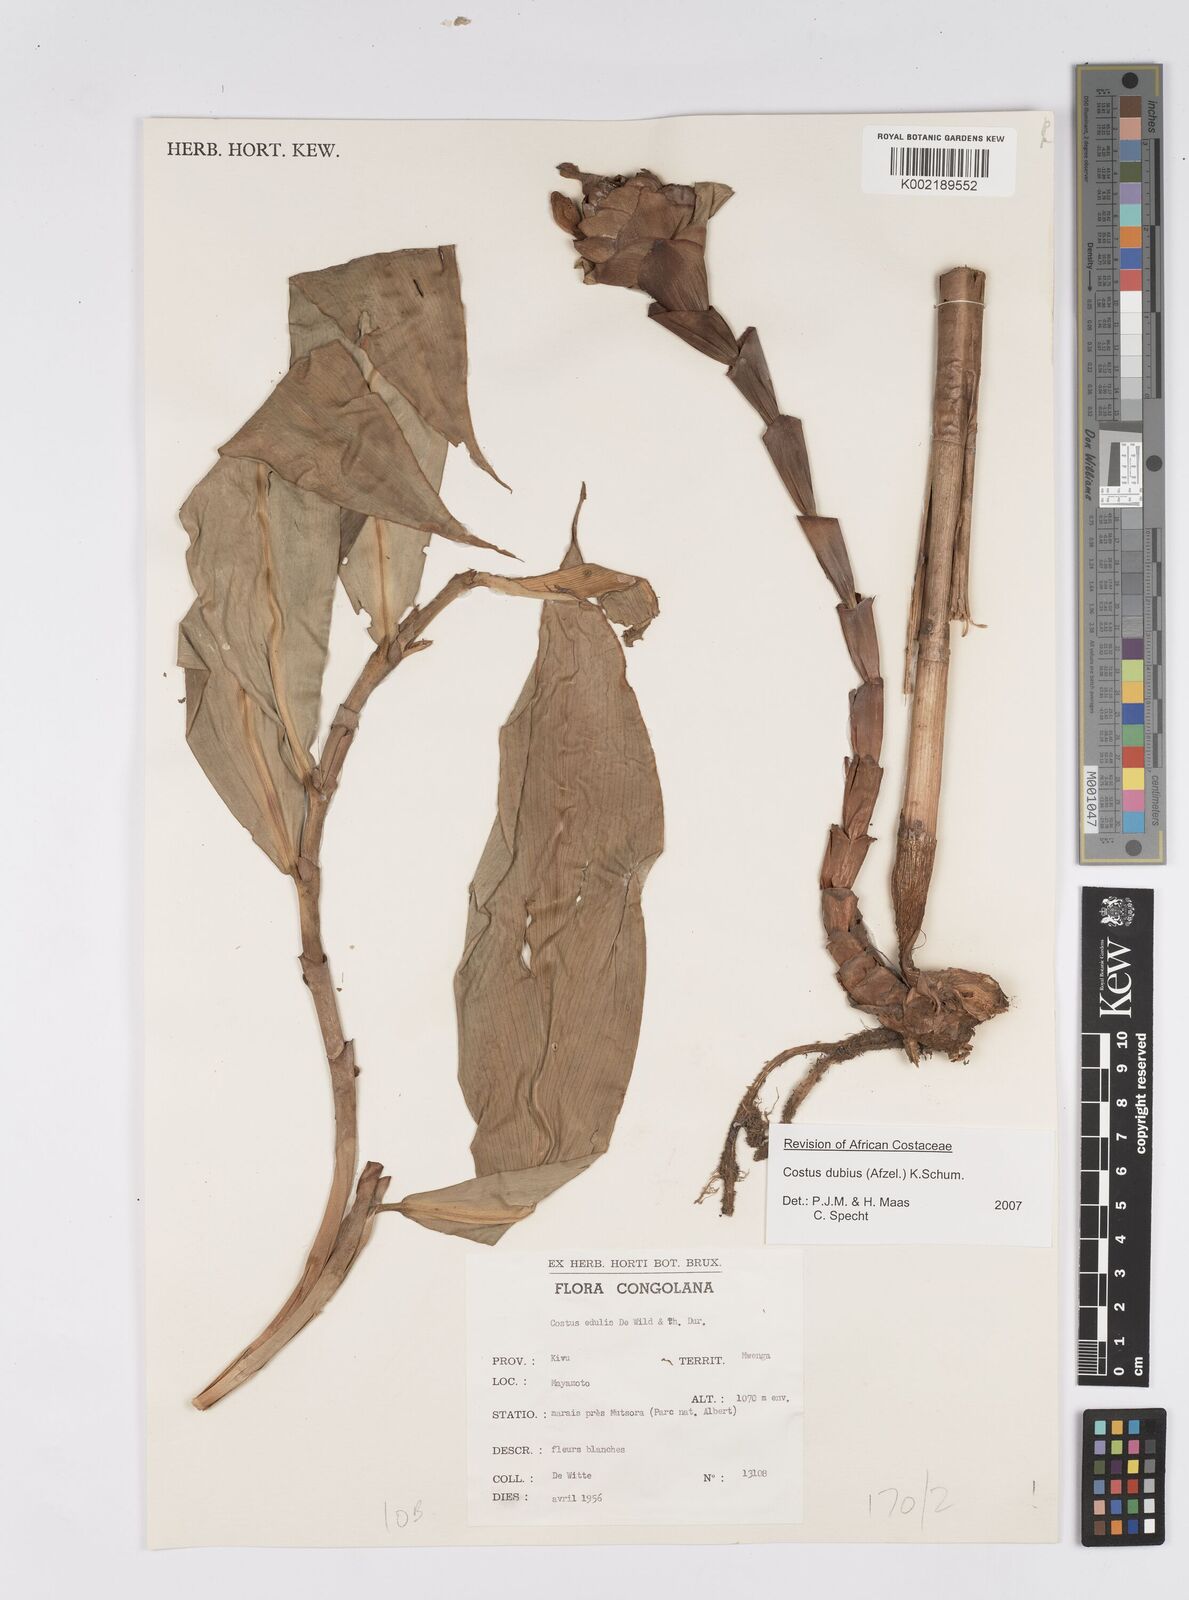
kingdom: Plantae
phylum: Tracheophyta
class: Liliopsida
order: Zingiberales
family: Costaceae
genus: Costus
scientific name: Costus dubius
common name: Costus
